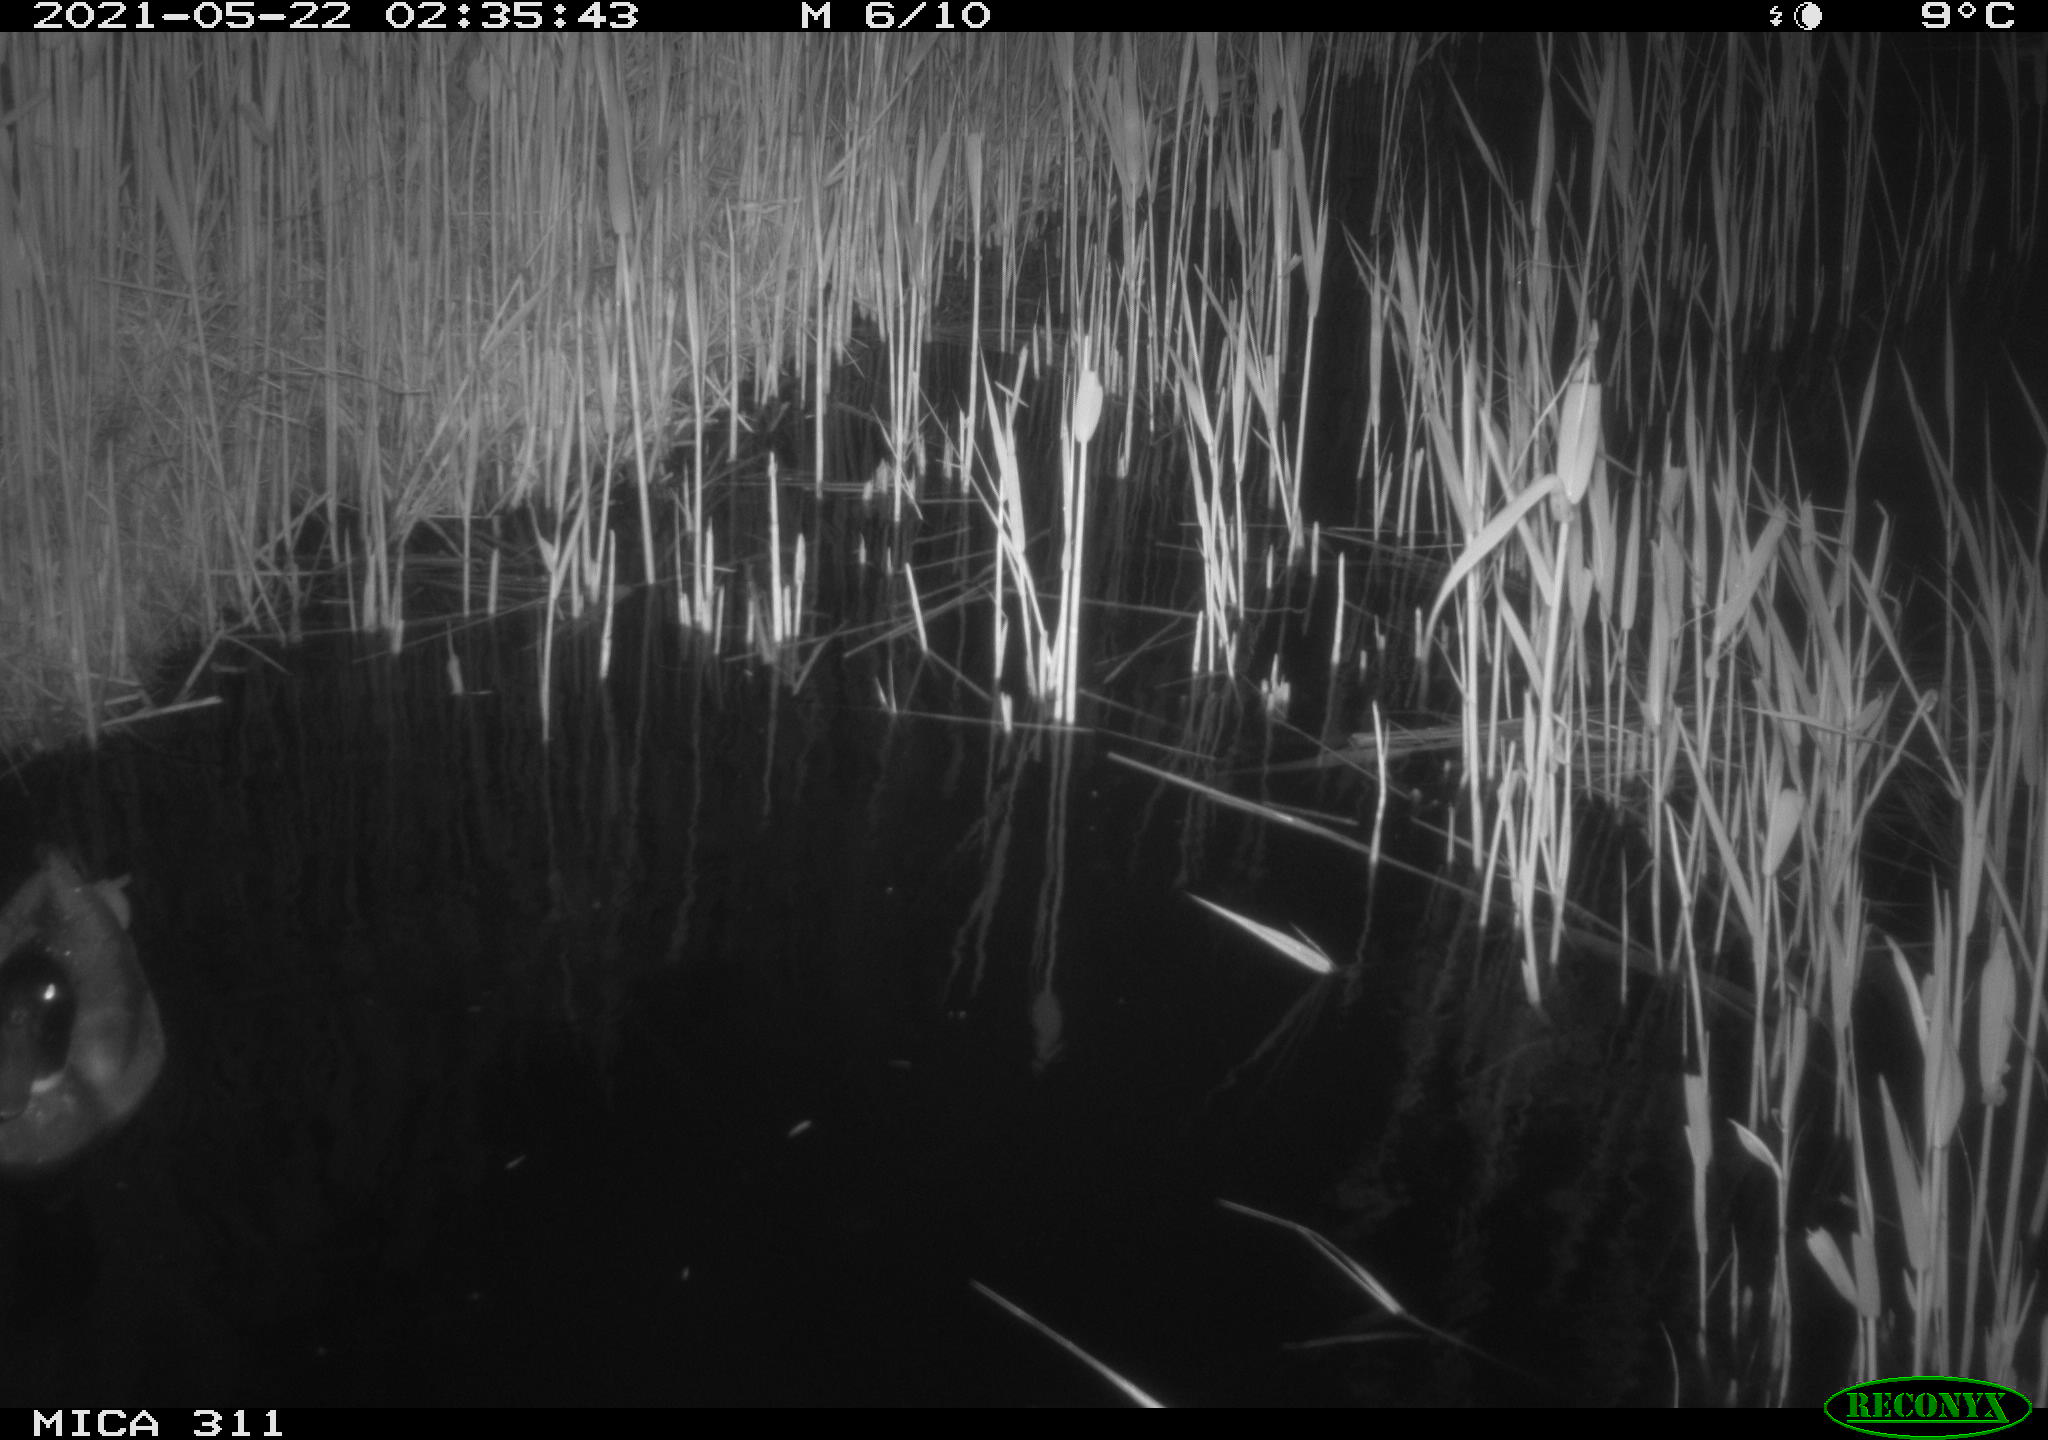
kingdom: Animalia
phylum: Chordata
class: Aves
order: Anseriformes
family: Anatidae
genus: Anas
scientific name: Anas platyrhynchos
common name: Mallard
